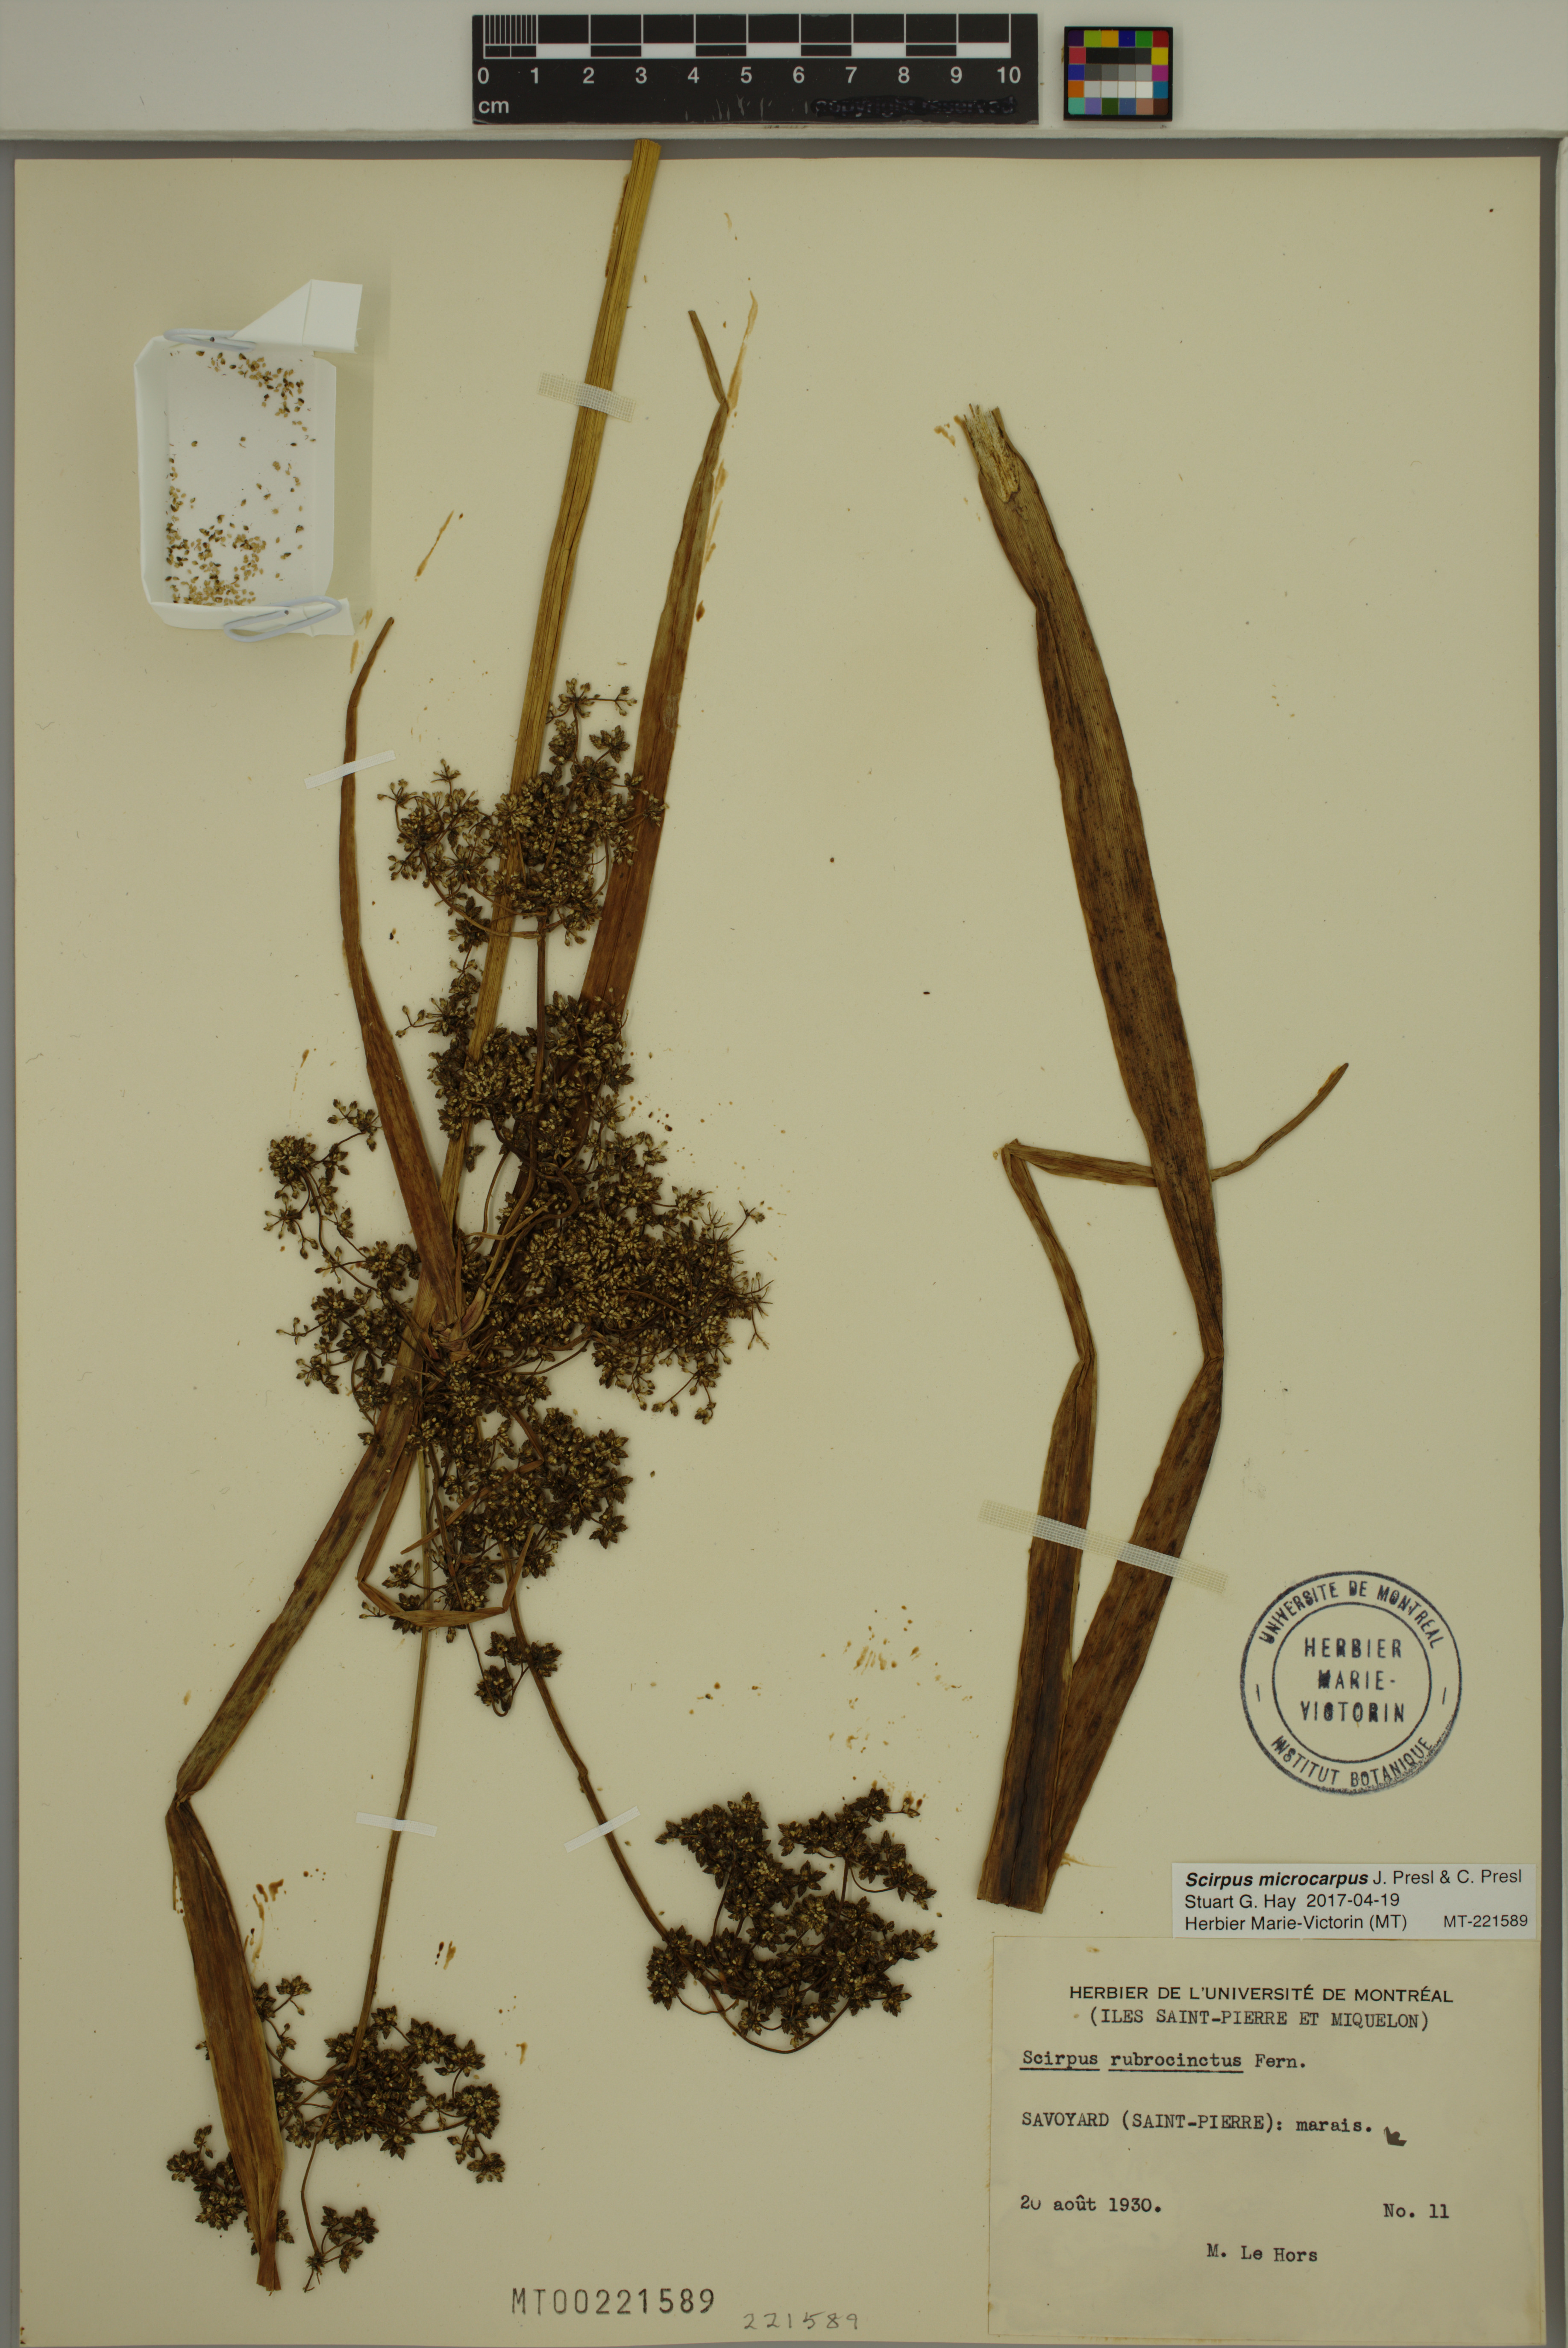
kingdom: Plantae
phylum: Tracheophyta
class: Liliopsida
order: Poales
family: Cyperaceae
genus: Scirpus
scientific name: Scirpus microcarpus
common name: Panicled bulrush
